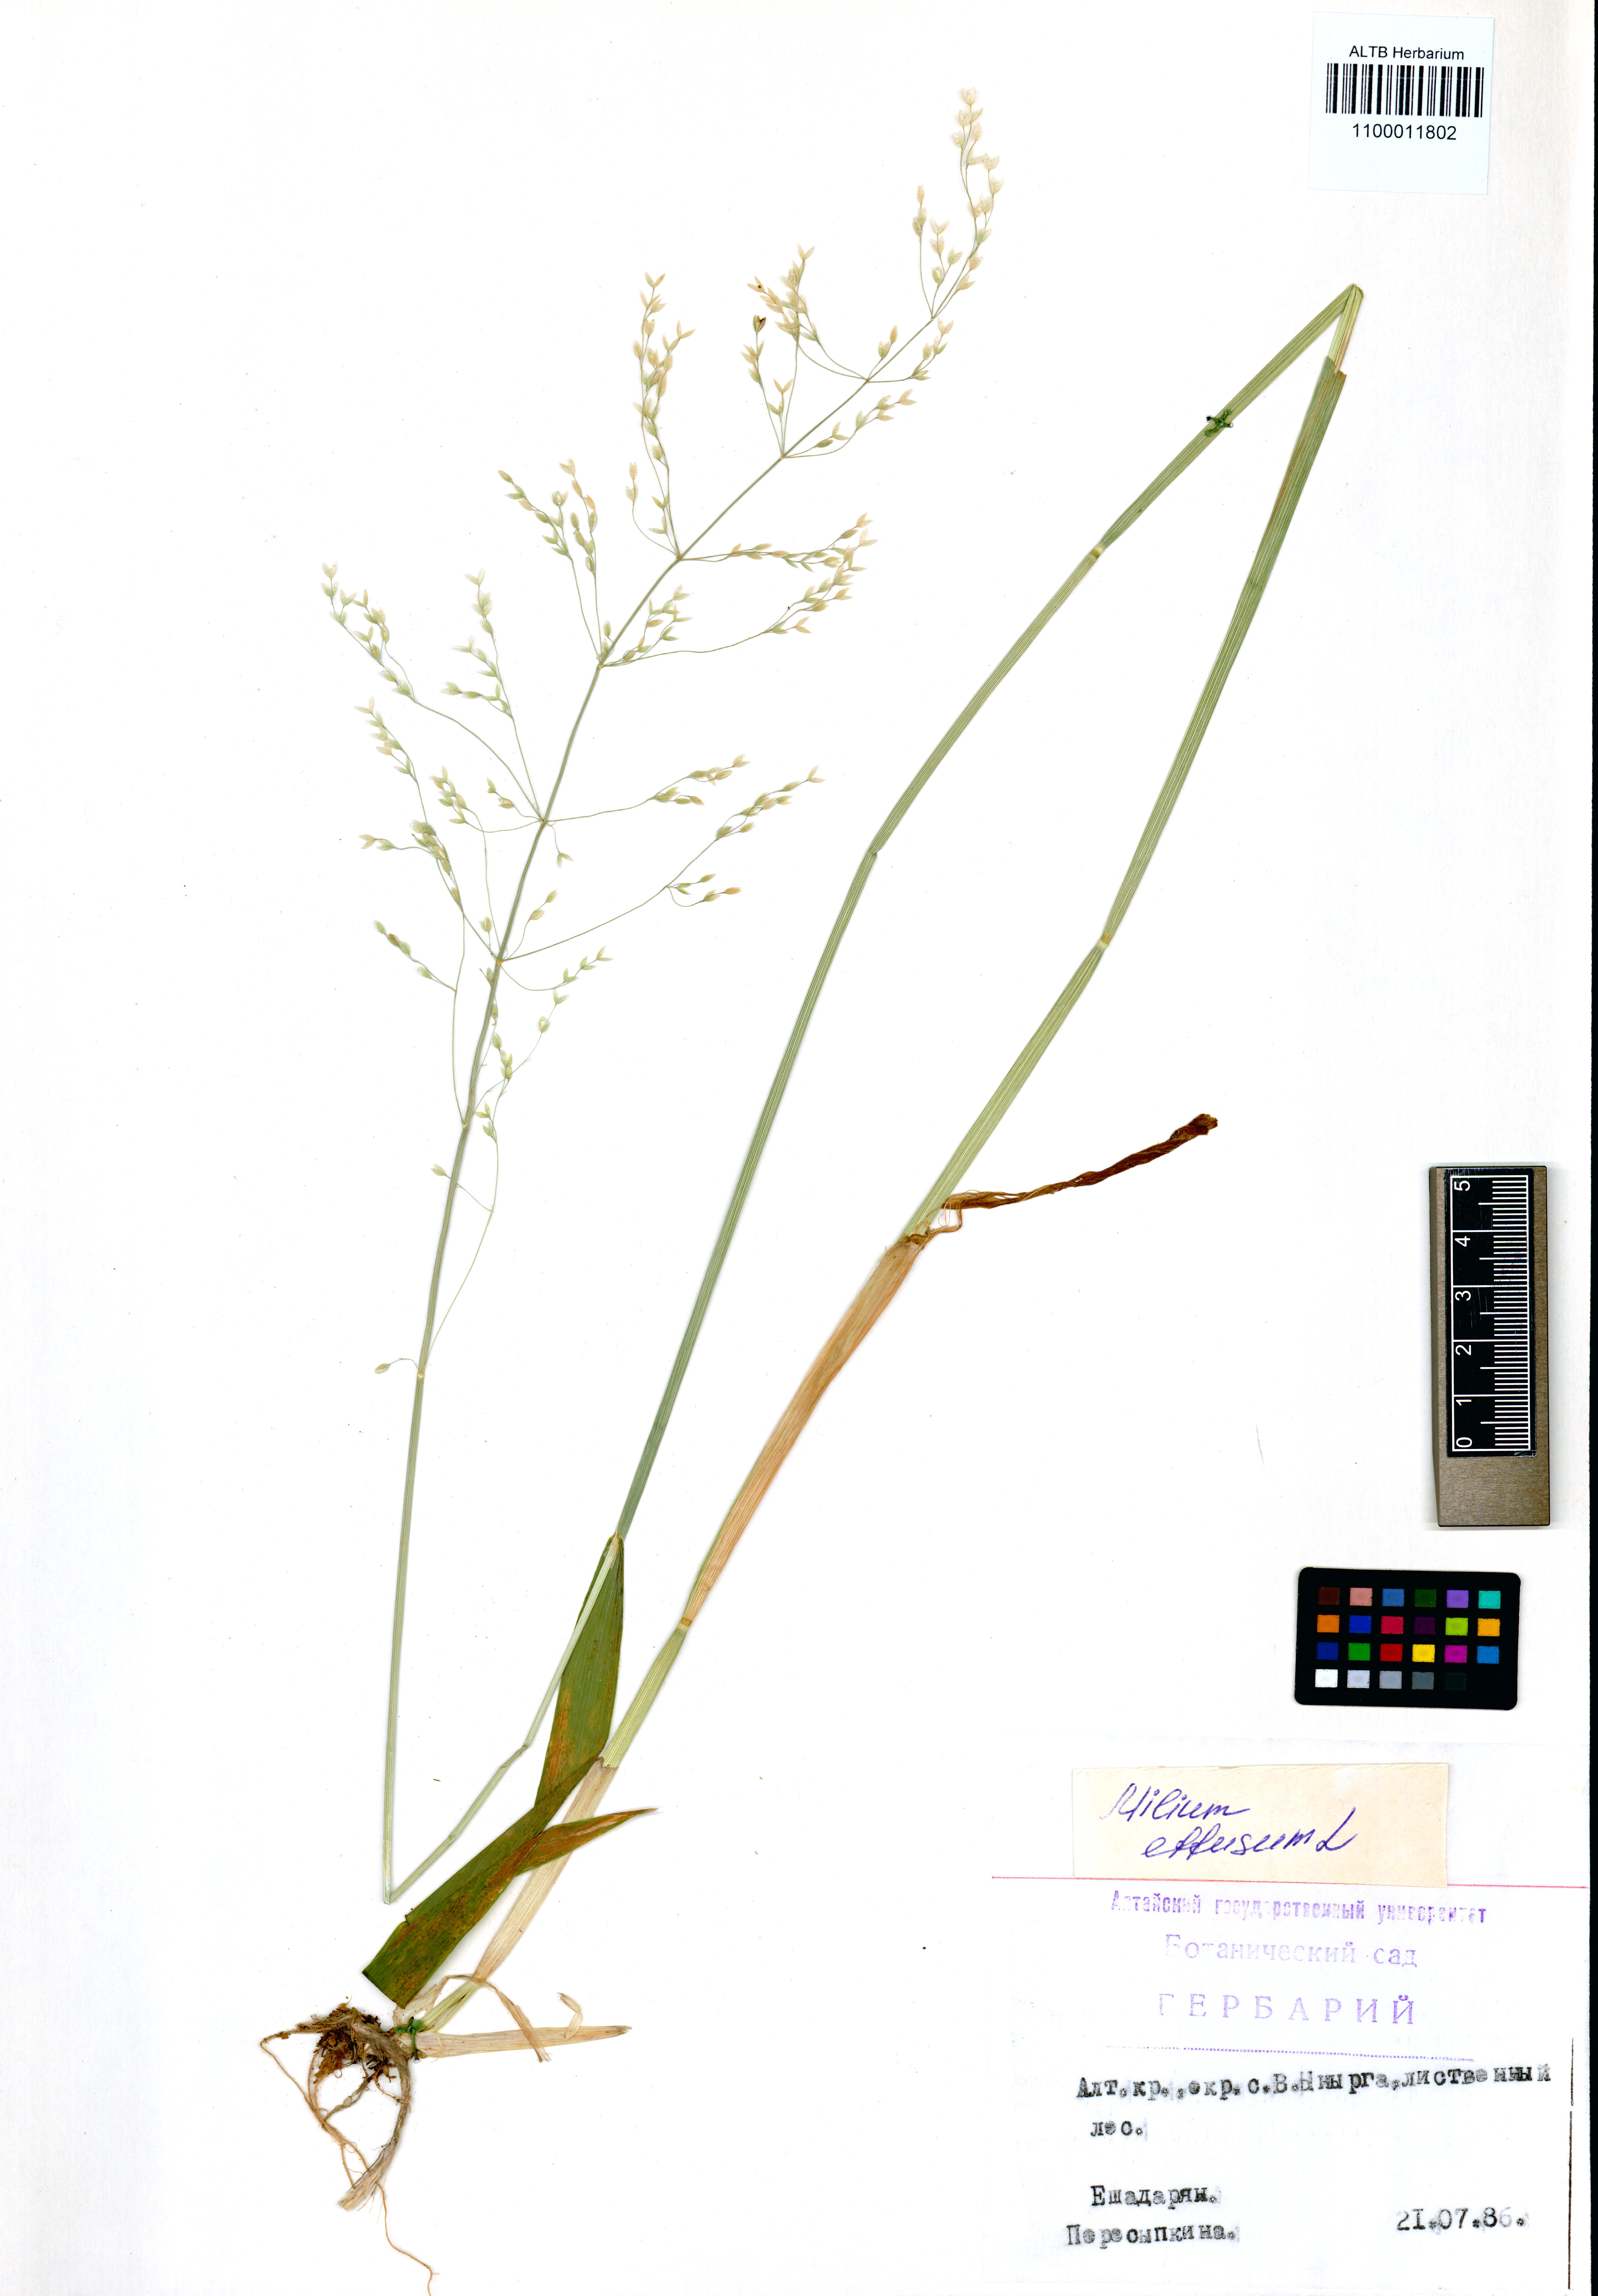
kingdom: Plantae
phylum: Tracheophyta
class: Liliopsida
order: Poales
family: Poaceae
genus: Milium
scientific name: Milium effusum
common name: Wood millet
